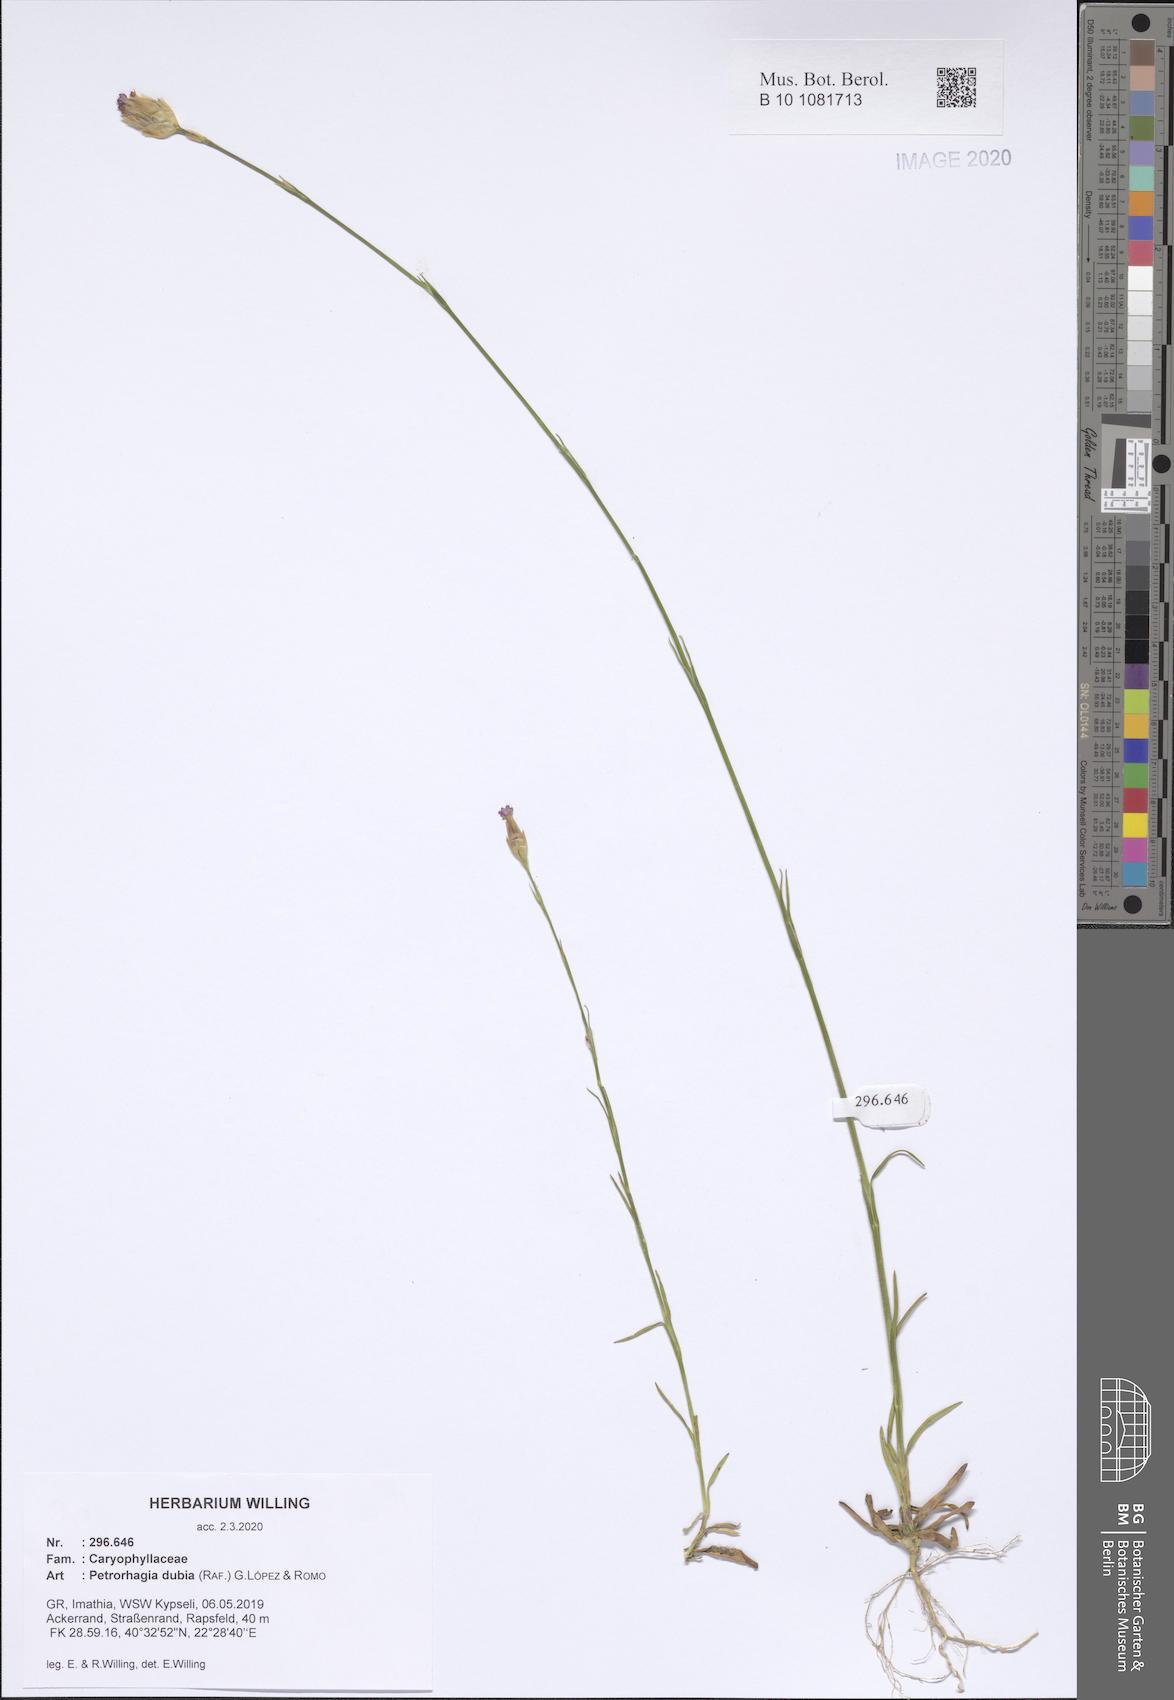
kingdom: Plantae
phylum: Tracheophyta
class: Magnoliopsida
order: Caryophyllales
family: Caryophyllaceae
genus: Petrorhagia
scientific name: Petrorhagia dubia
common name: Hairypink
